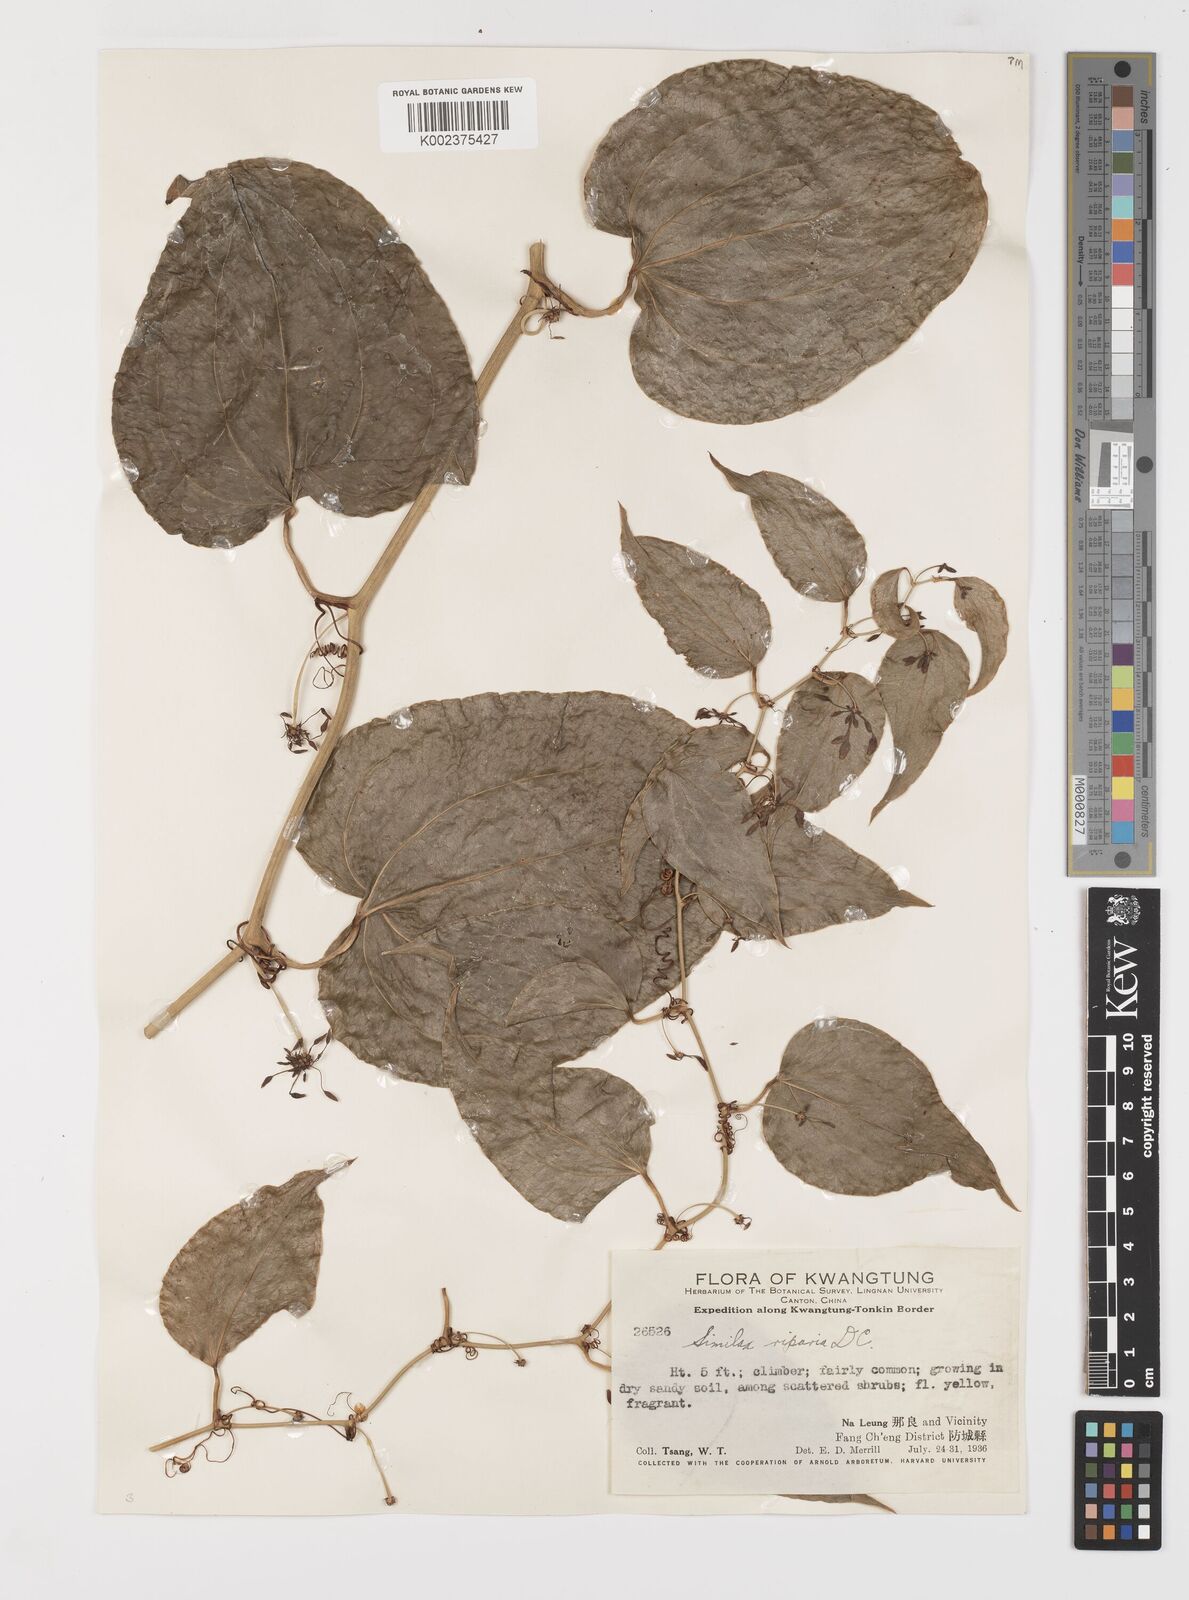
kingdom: Plantae
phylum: Tracheophyta
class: Liliopsida
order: Liliales
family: Smilacaceae
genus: Smilax
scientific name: Smilax riparia
